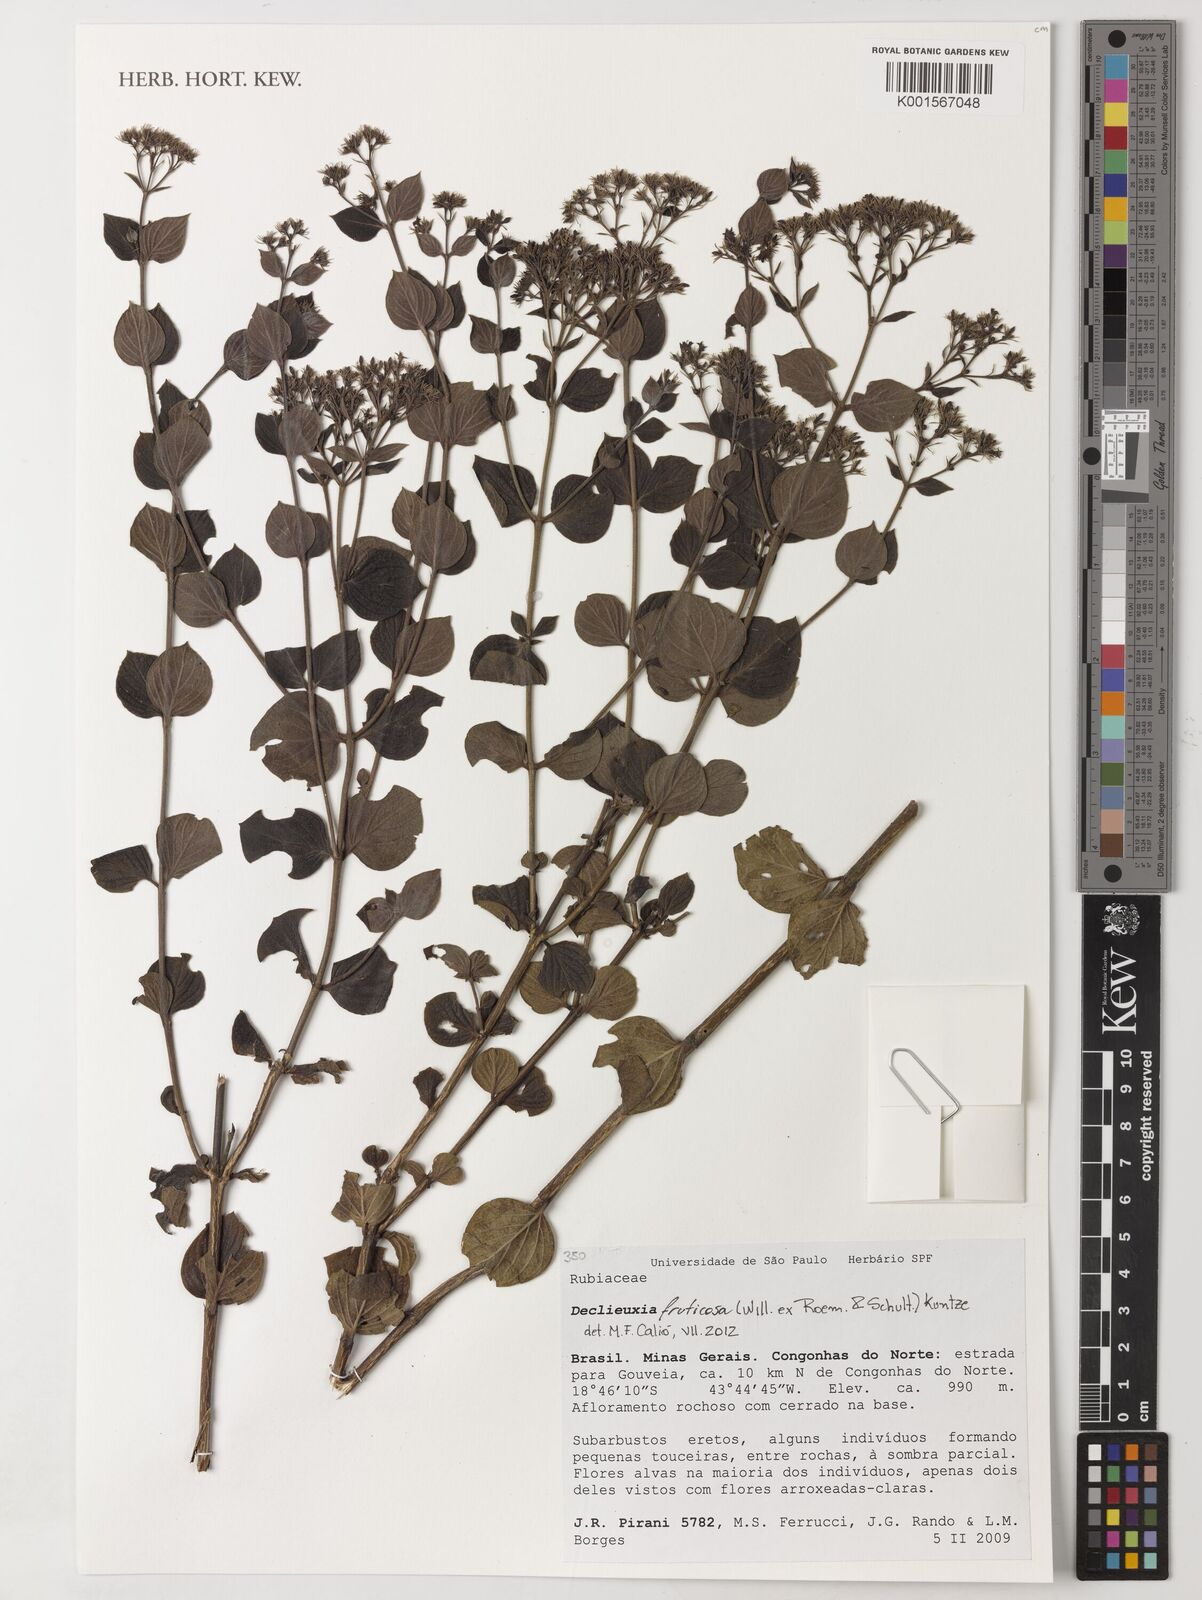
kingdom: Plantae
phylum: Tracheophyta
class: Magnoliopsida
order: Gentianales
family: Rubiaceae
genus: Declieuxia
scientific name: Declieuxia fruticosa
